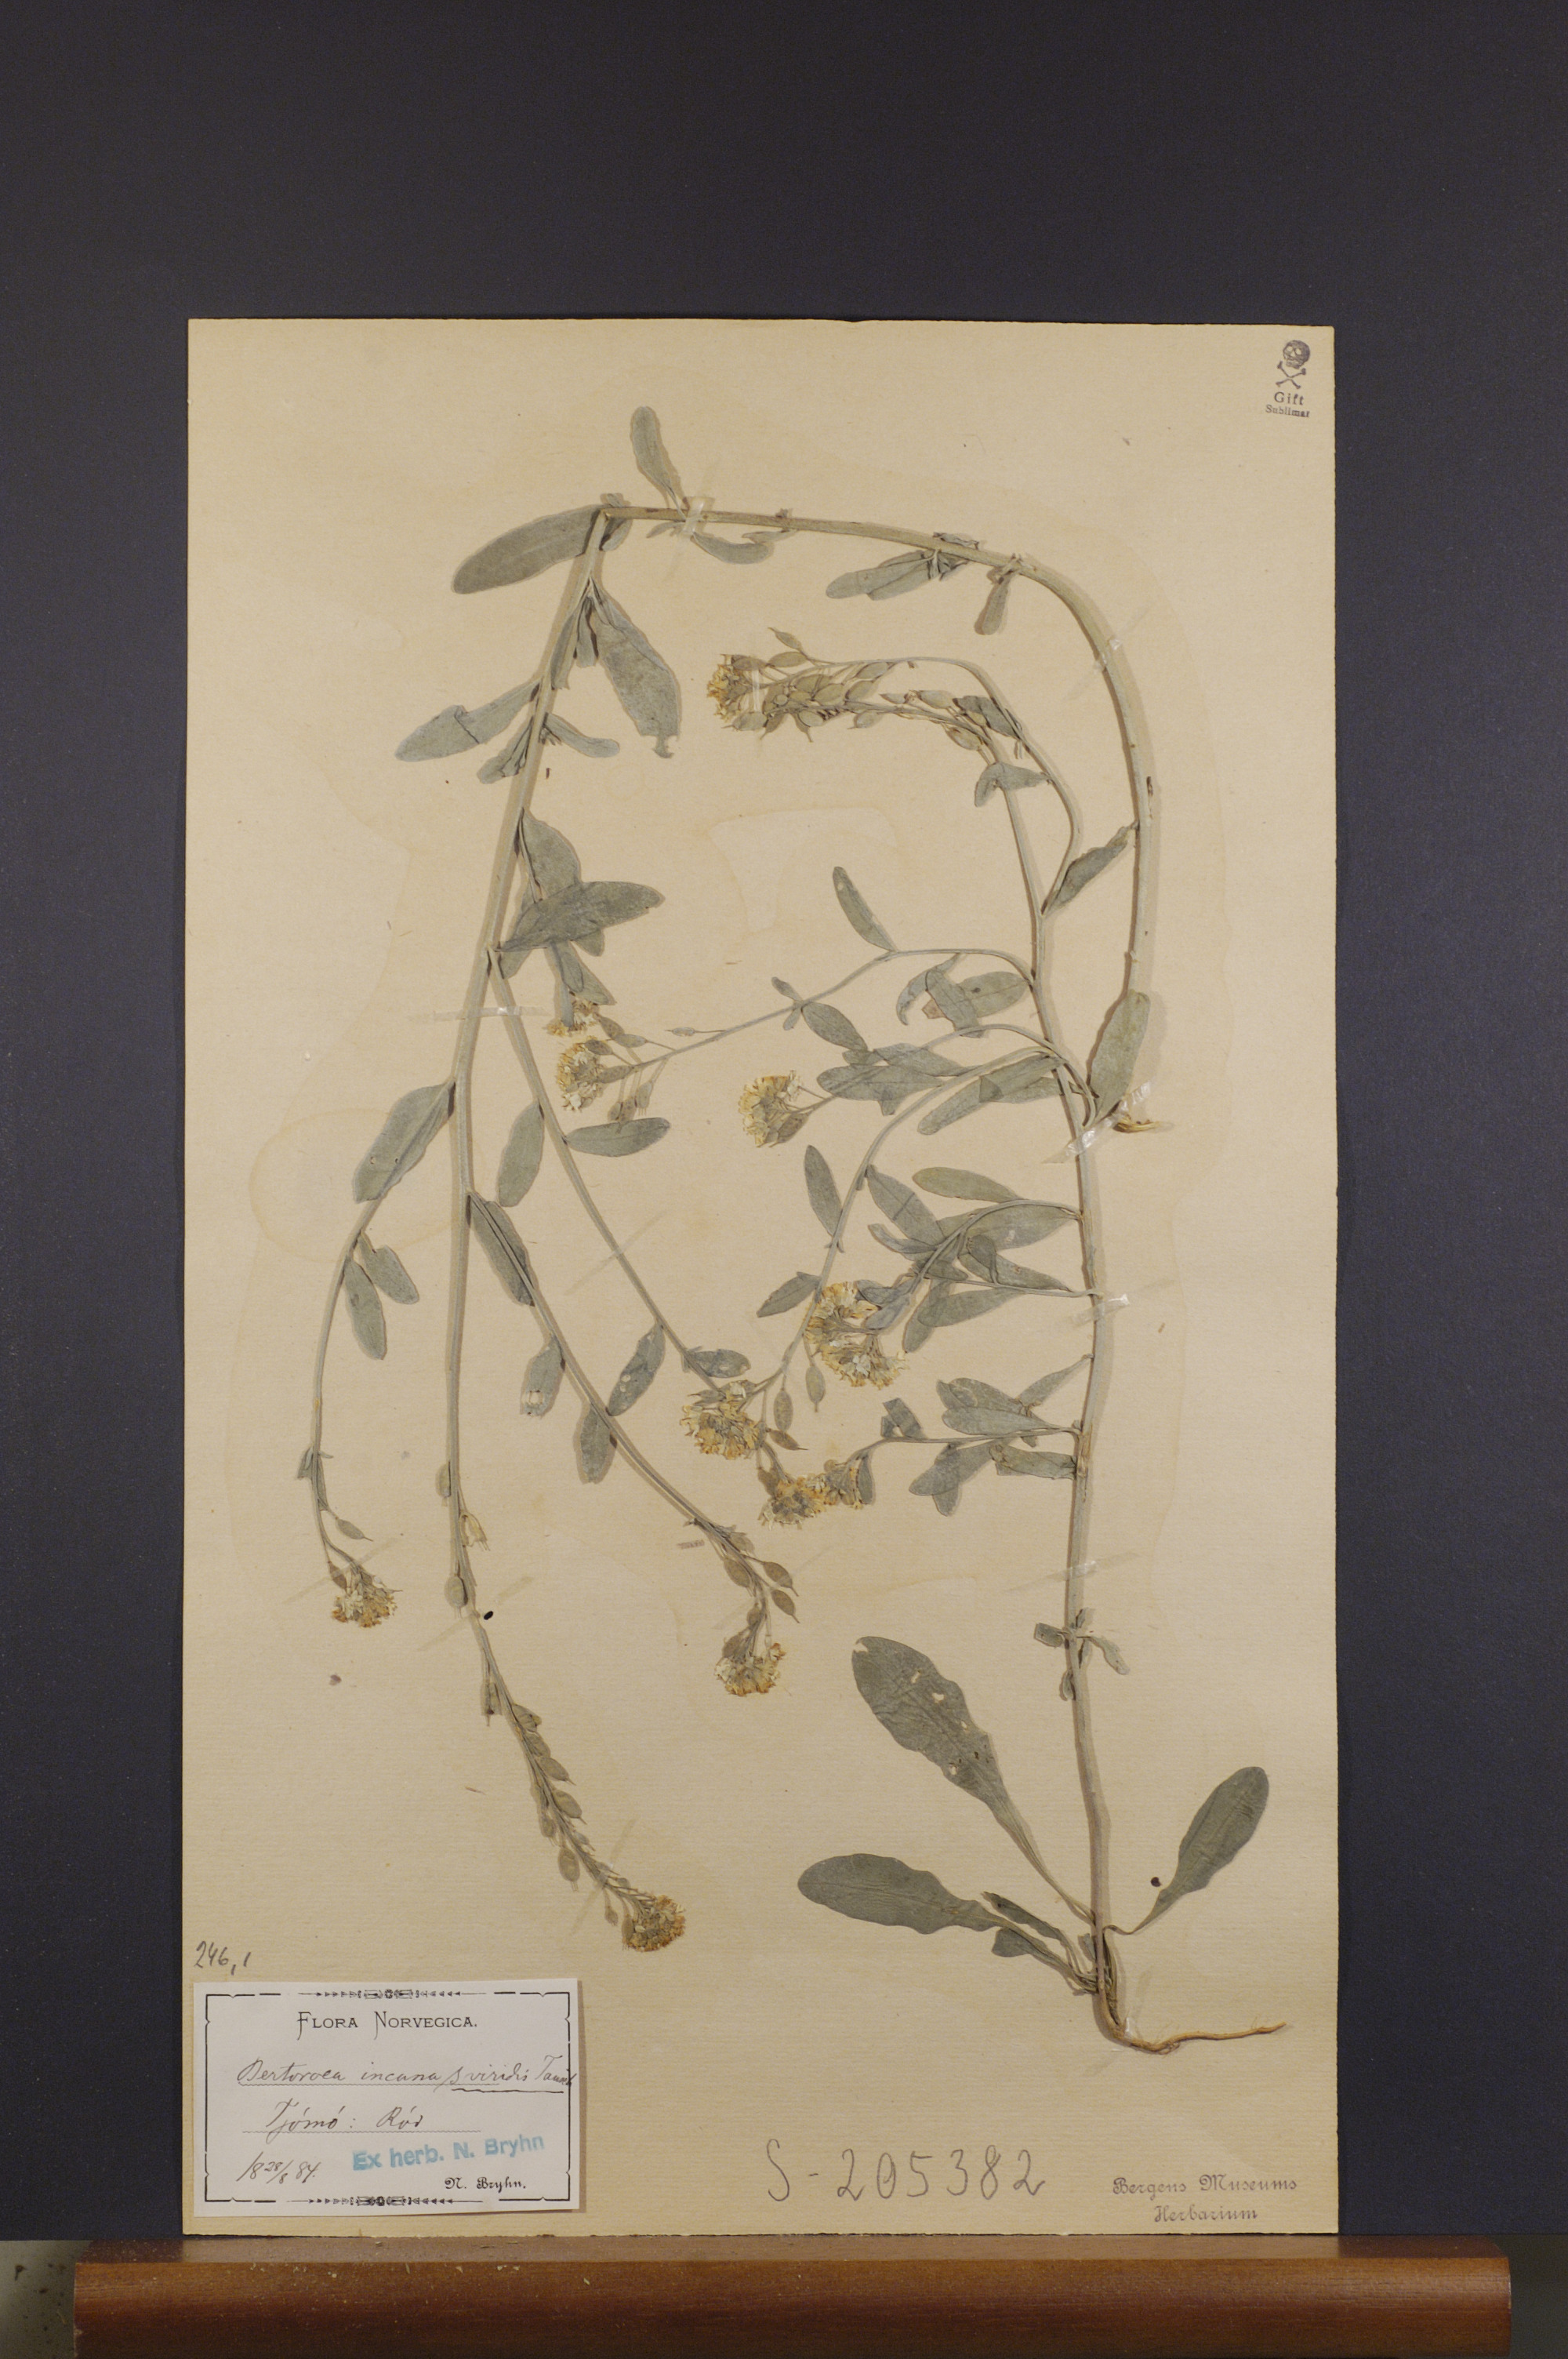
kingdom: Plantae
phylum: Tracheophyta
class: Magnoliopsida
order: Brassicales
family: Brassicaceae
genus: Berteroa
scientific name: Berteroa incana
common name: Hoary alison
